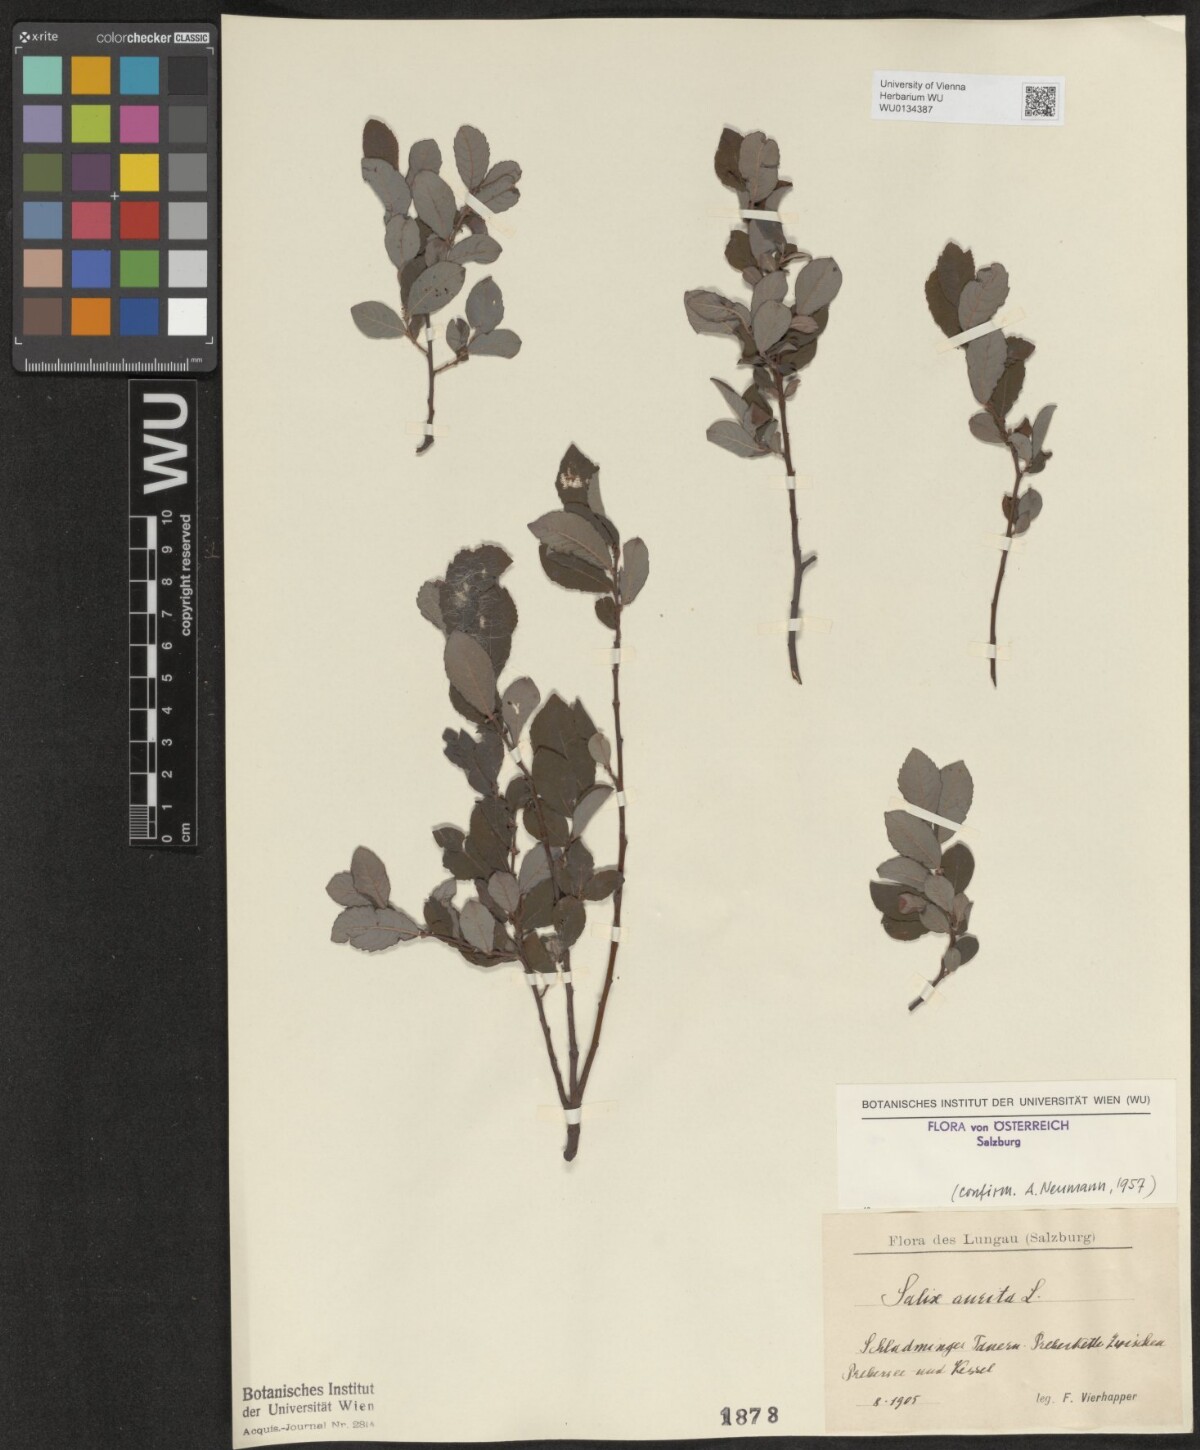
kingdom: Plantae
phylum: Tracheophyta
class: Magnoliopsida
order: Malpighiales
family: Salicaceae
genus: Salix
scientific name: Salix aurita
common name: Eared willow
